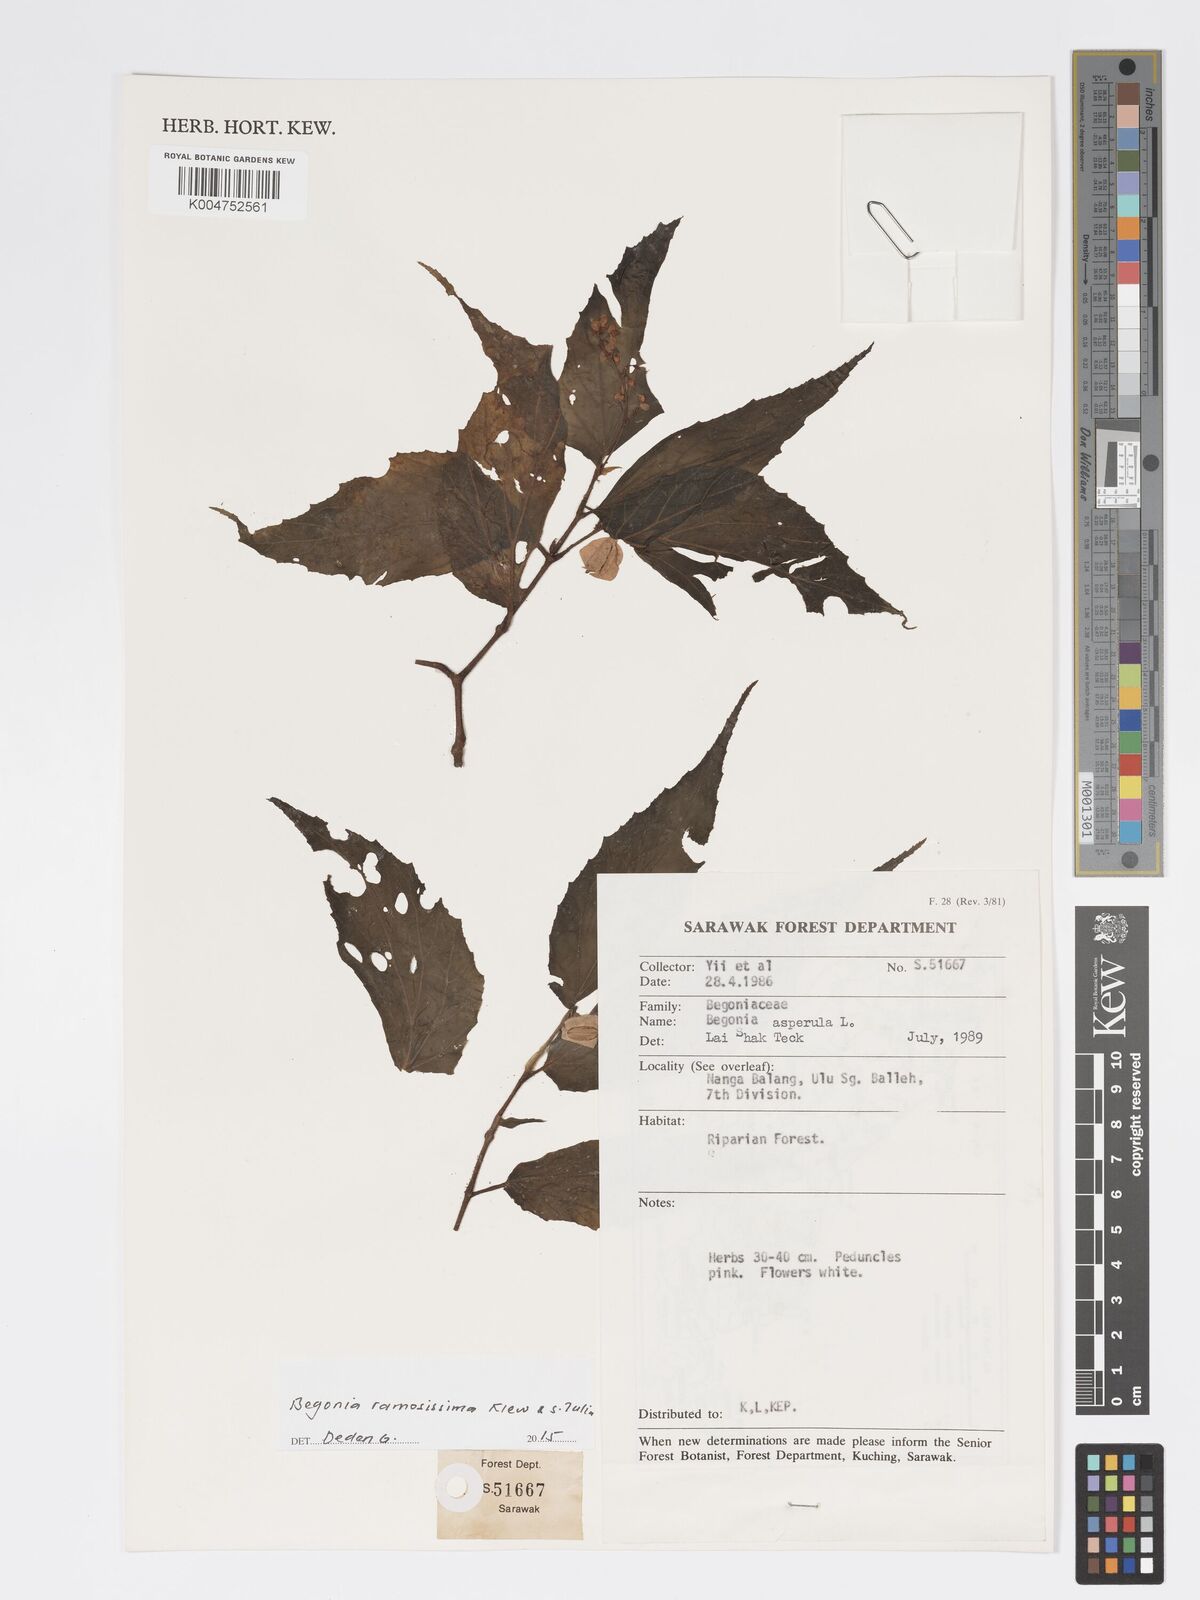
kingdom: Plantae
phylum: Tracheophyta
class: Magnoliopsida
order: Cucurbitales
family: Begoniaceae
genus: Begonia
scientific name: Begonia ramosissima
